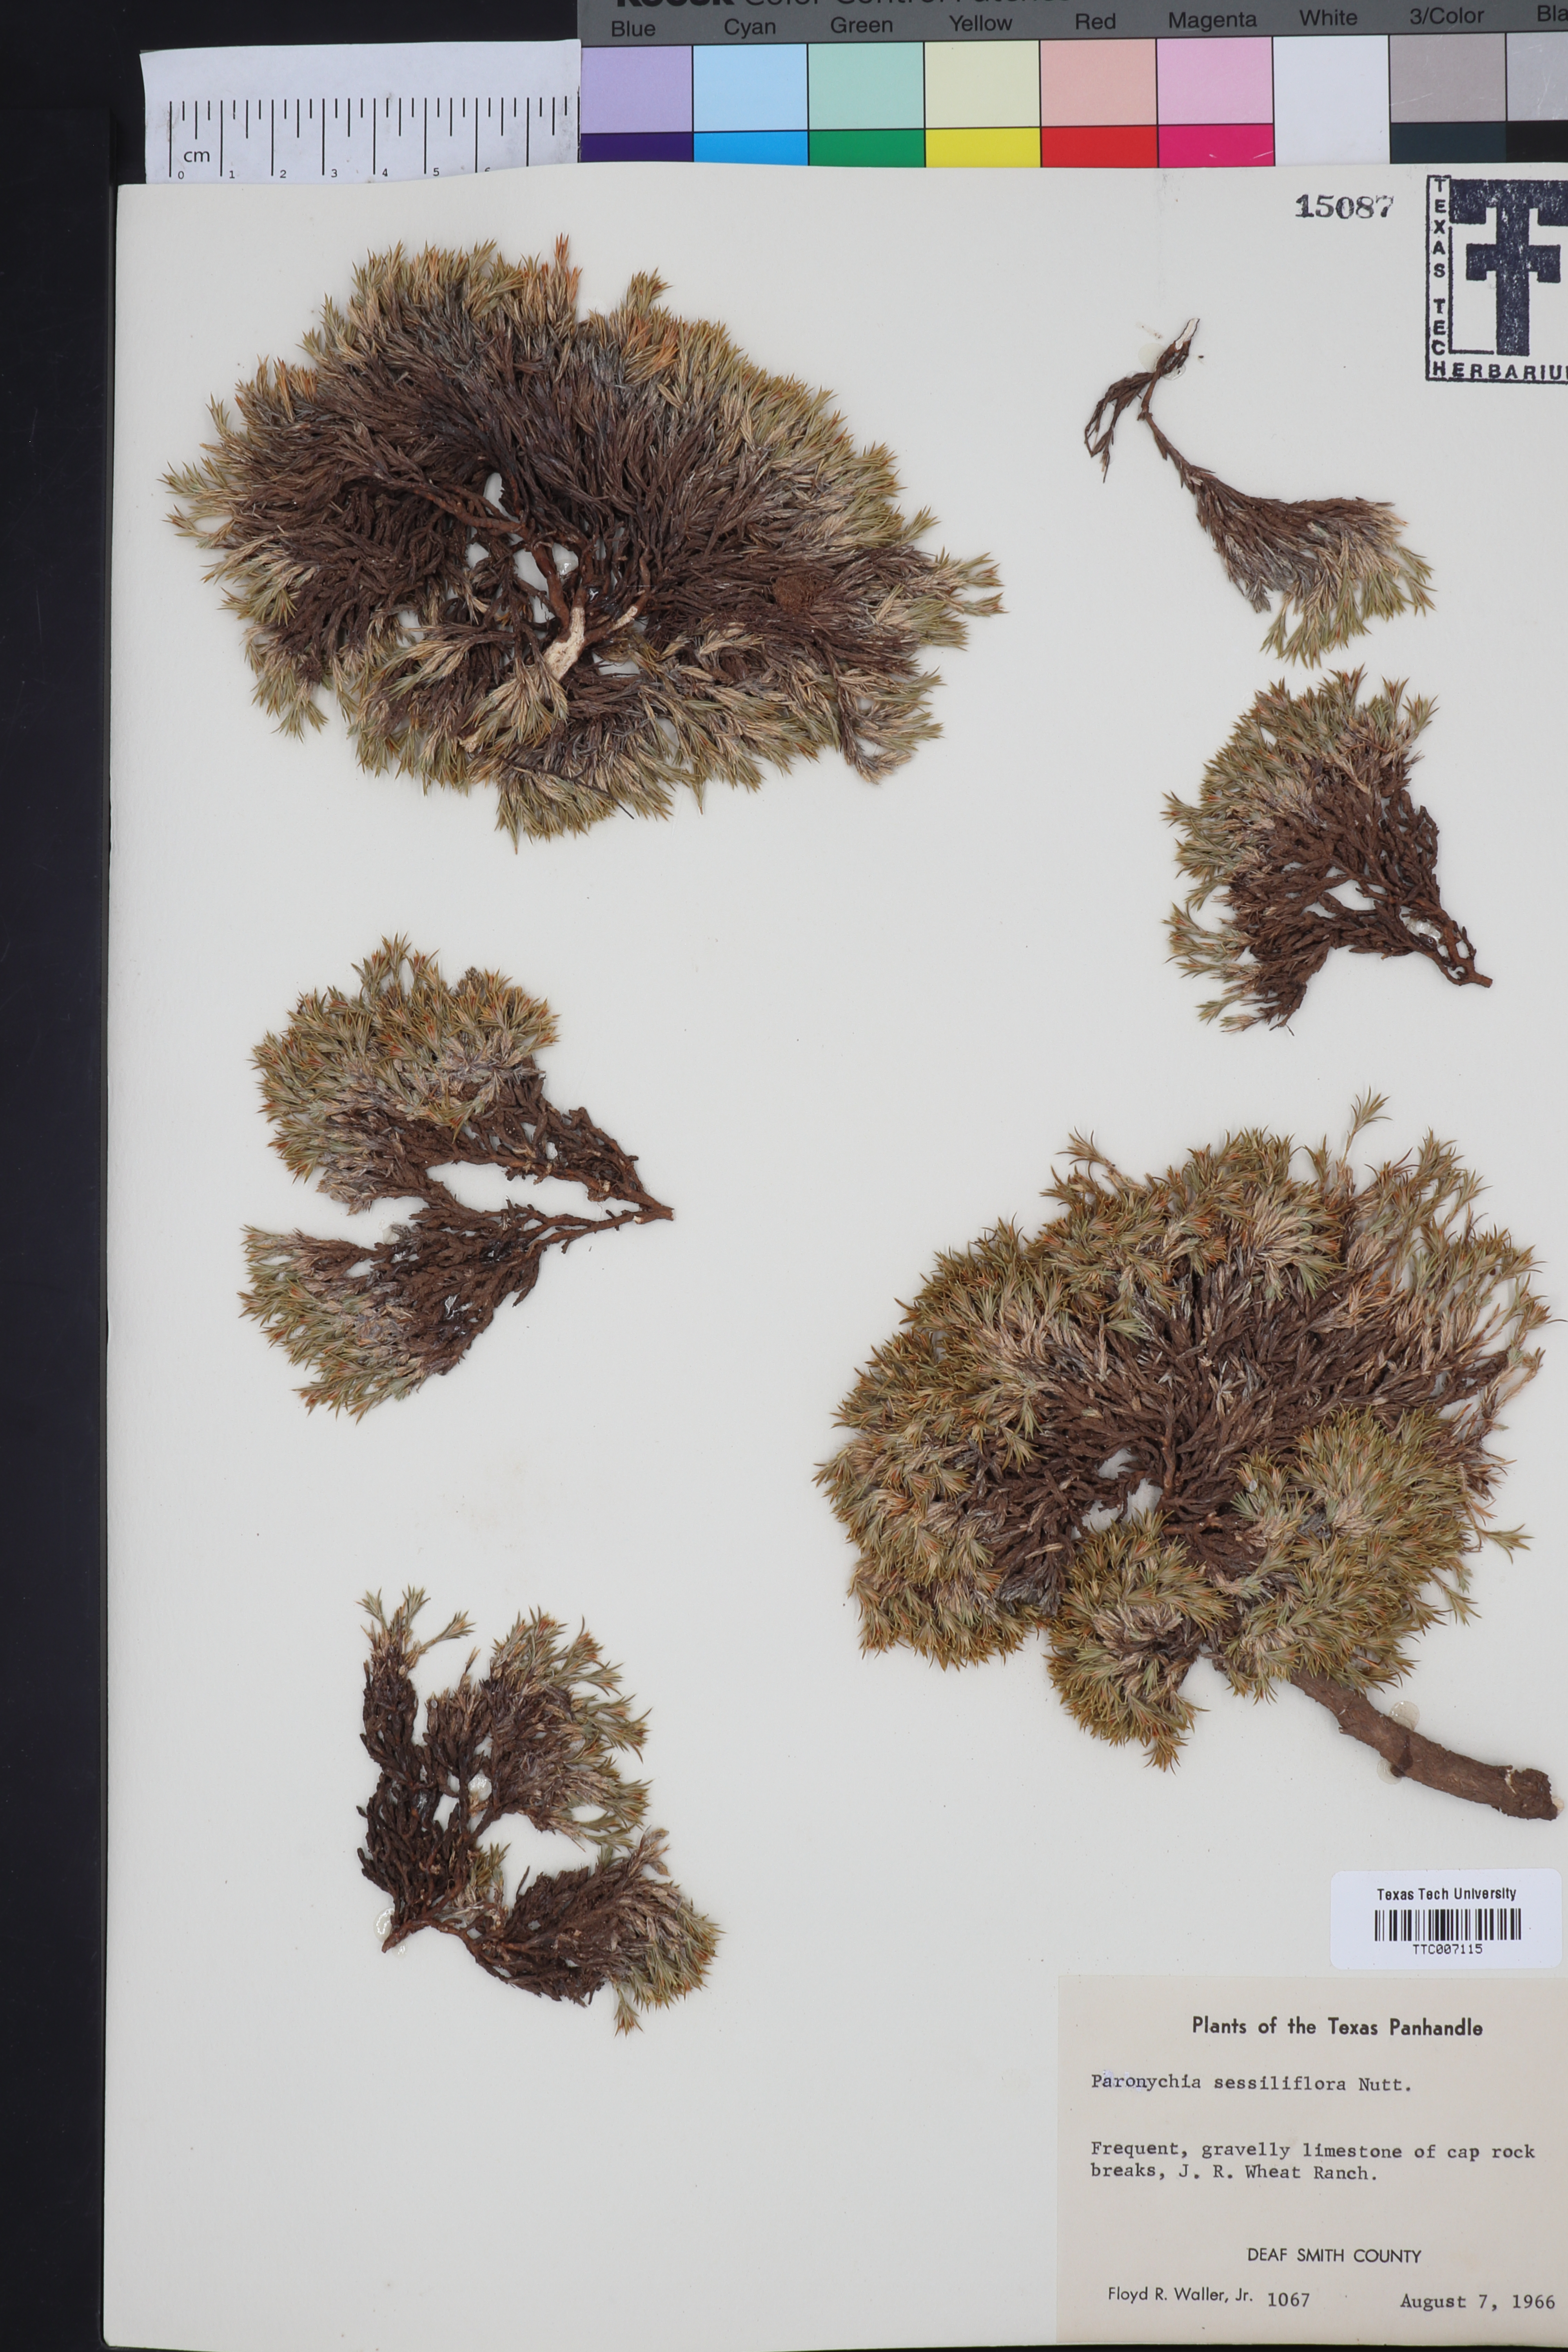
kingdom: Plantae
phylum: Tracheophyta
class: Magnoliopsida
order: Caryophyllales
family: Caryophyllaceae
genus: Paronychia
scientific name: Paronychia sessiliflora
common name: Creeping nailwort
